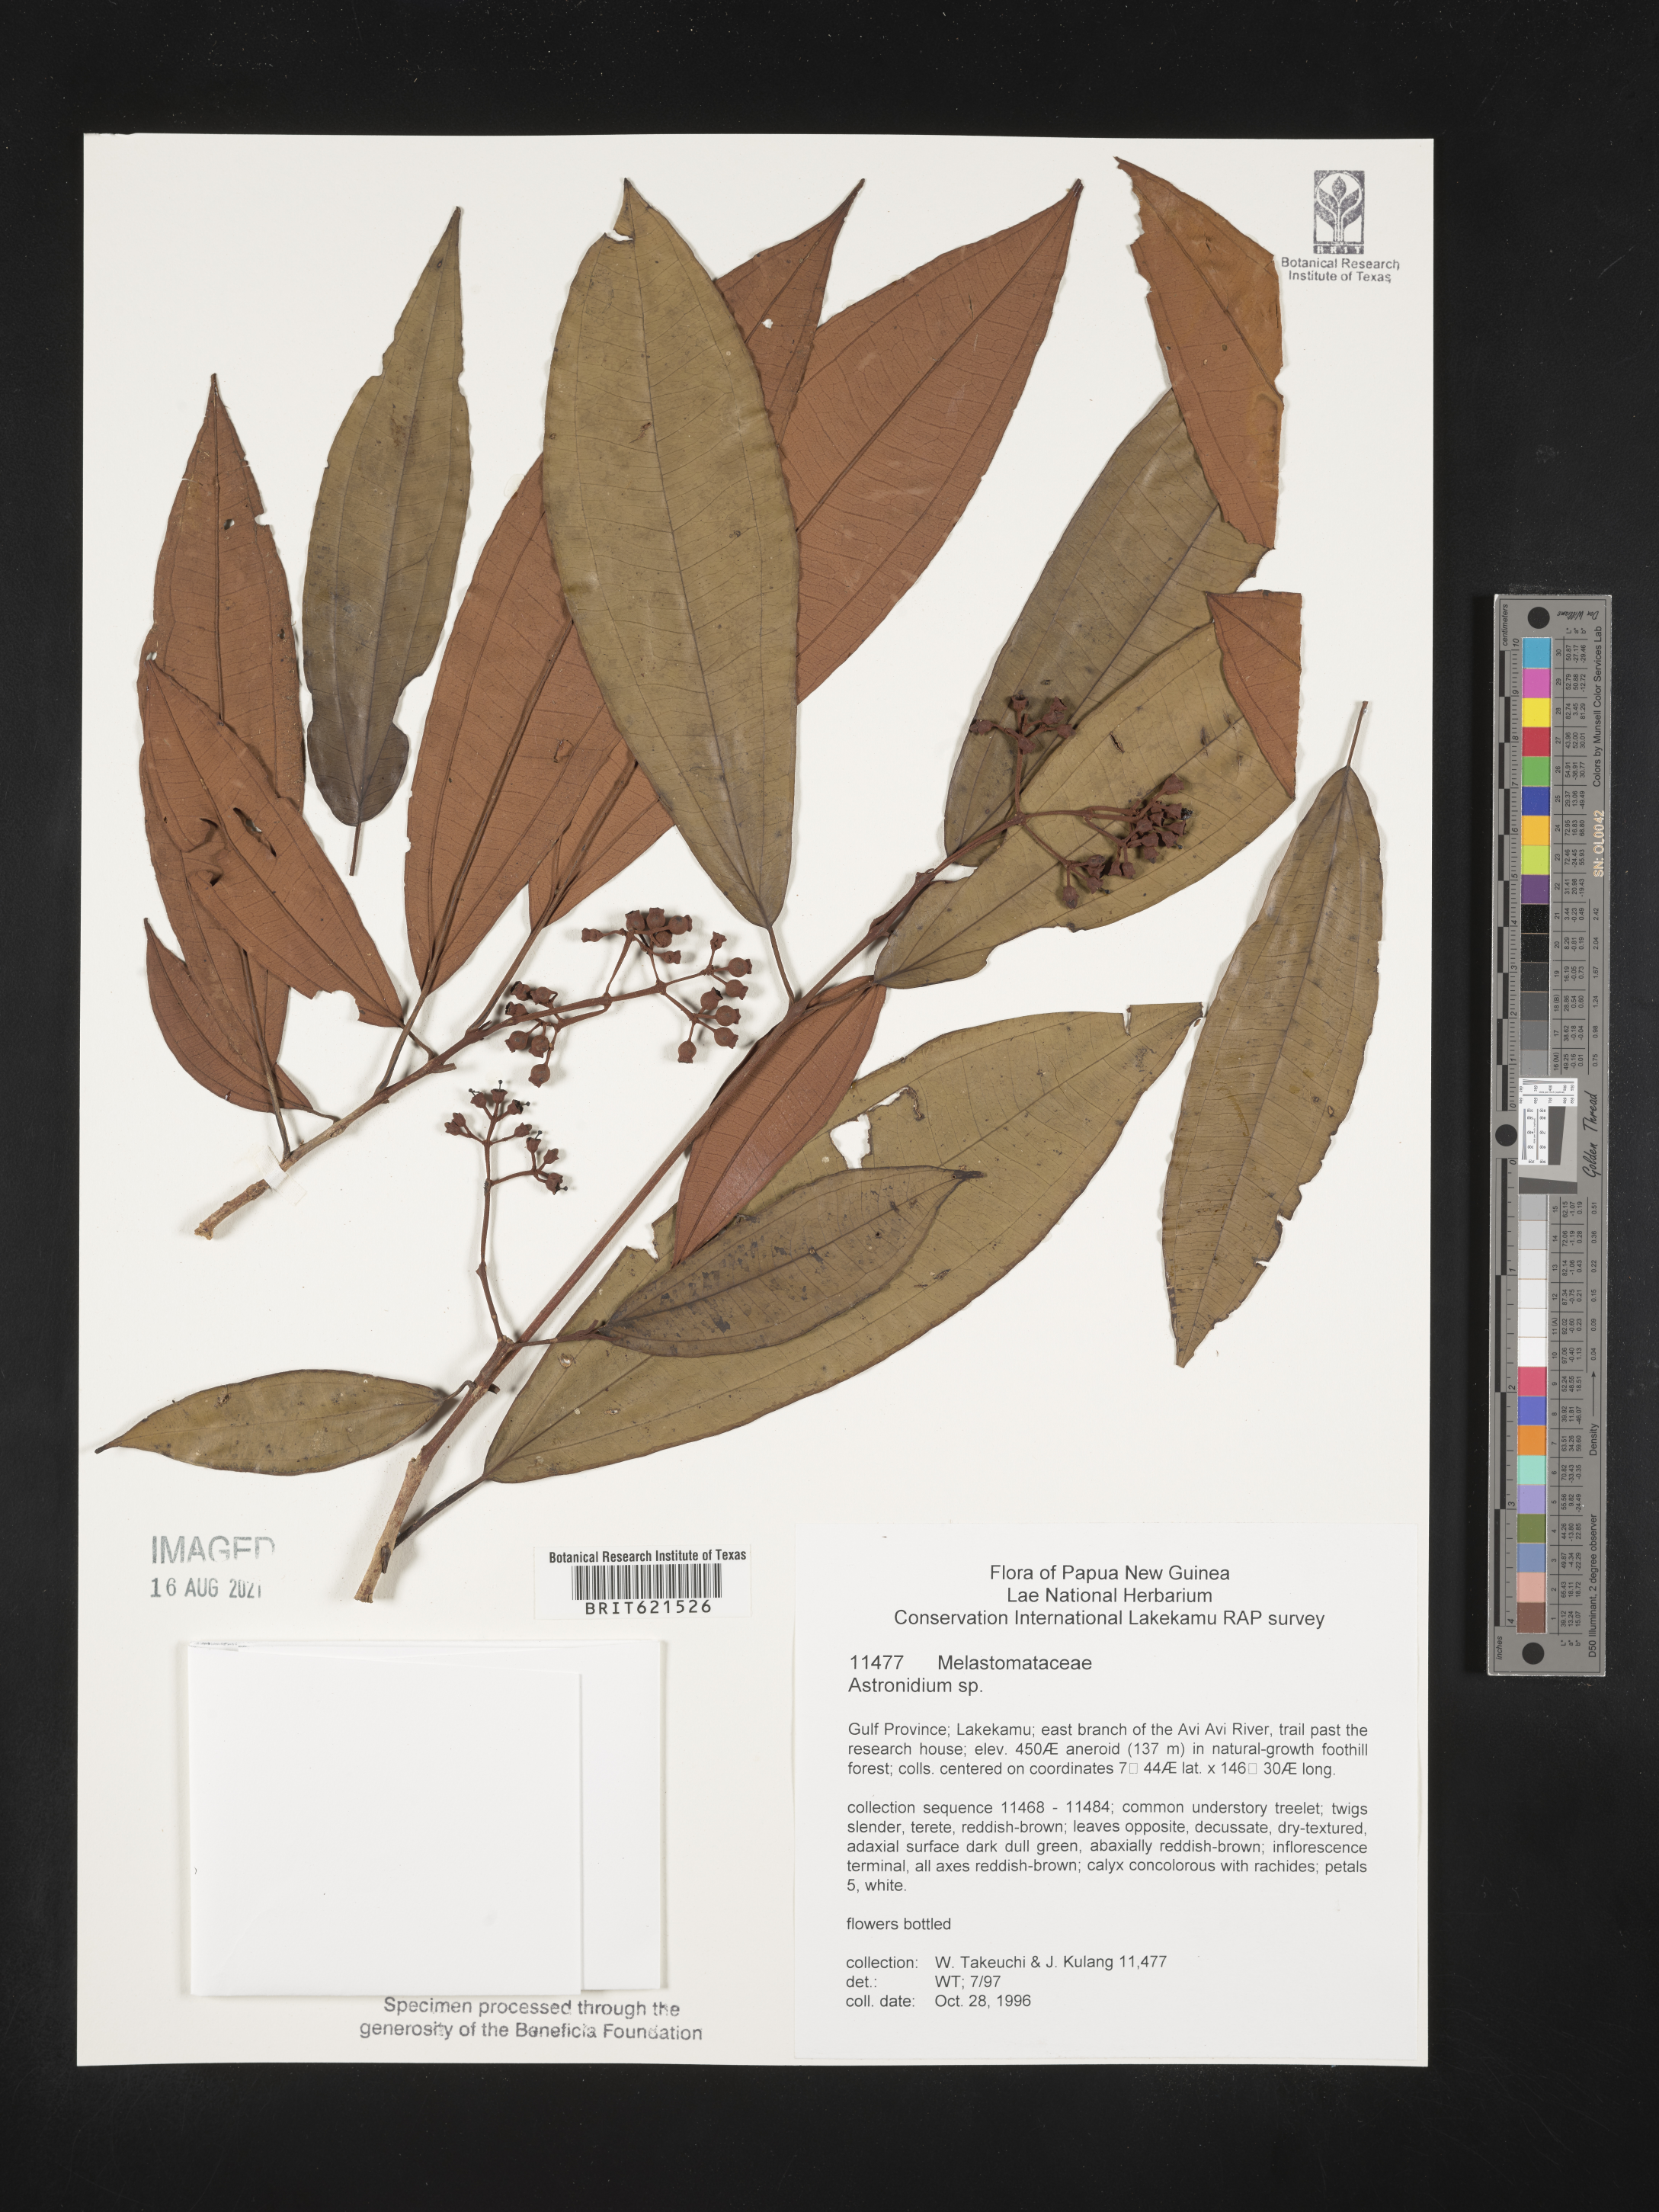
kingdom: Plantae
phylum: Tracheophyta
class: Magnoliopsida
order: Myrtales
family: Melastomataceae
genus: Astronidium
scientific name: Astronidium
